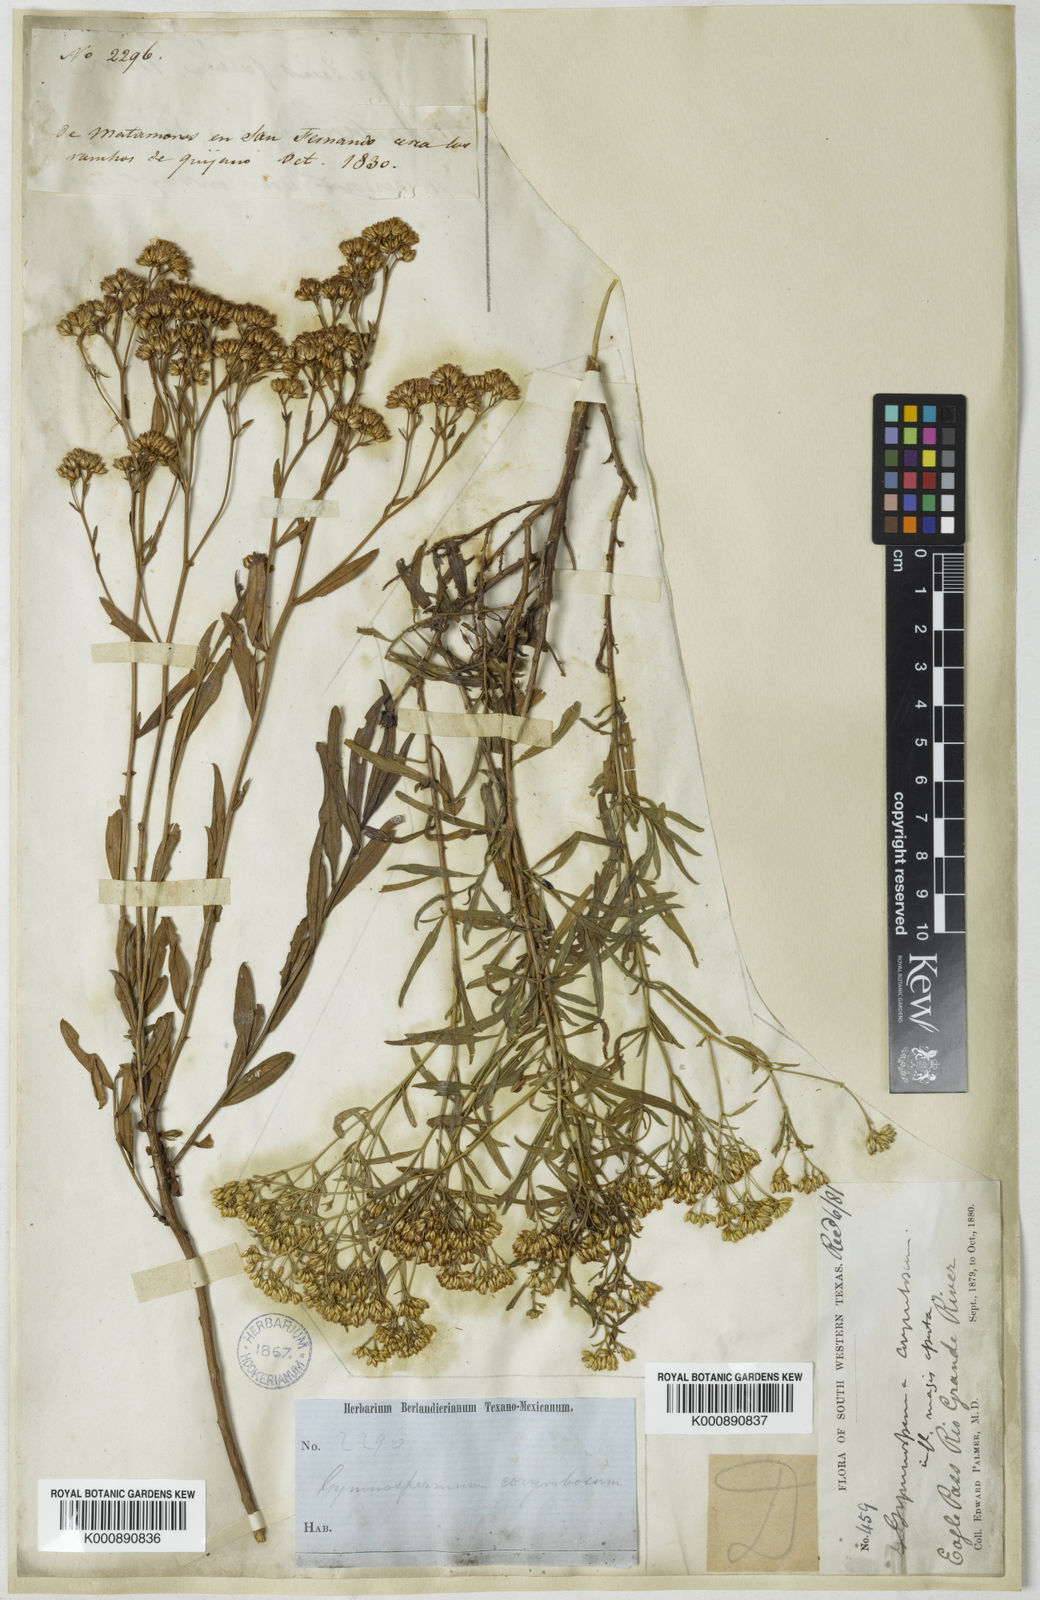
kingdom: Plantae
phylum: Tracheophyta
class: Magnoliopsida
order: Asterales
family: Asteraceae
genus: Gymnosperma
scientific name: Gymnosperma glutinosum
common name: Gumhead
